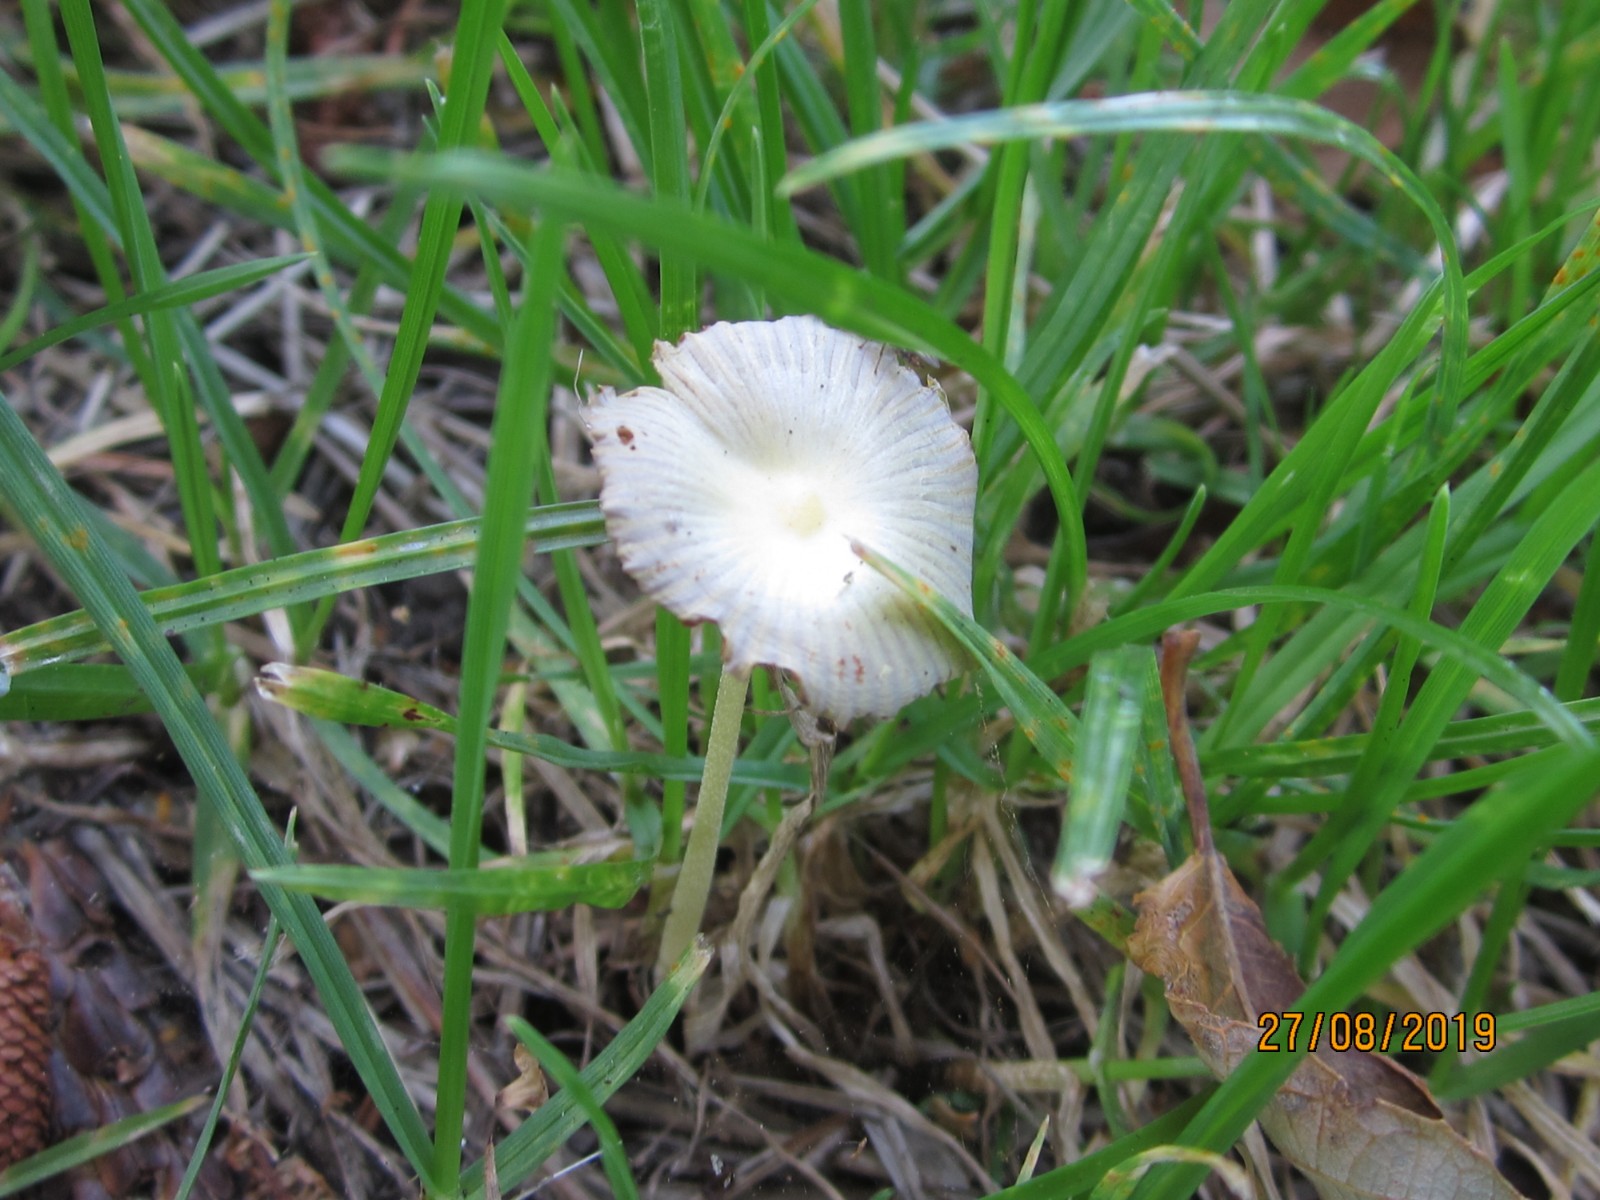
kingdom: Fungi
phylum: Basidiomycota
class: Agaricomycetes
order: Agaricales
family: Bolbitiaceae
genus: Bolbitius
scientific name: Bolbitius titubans
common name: almindelig gulhat
